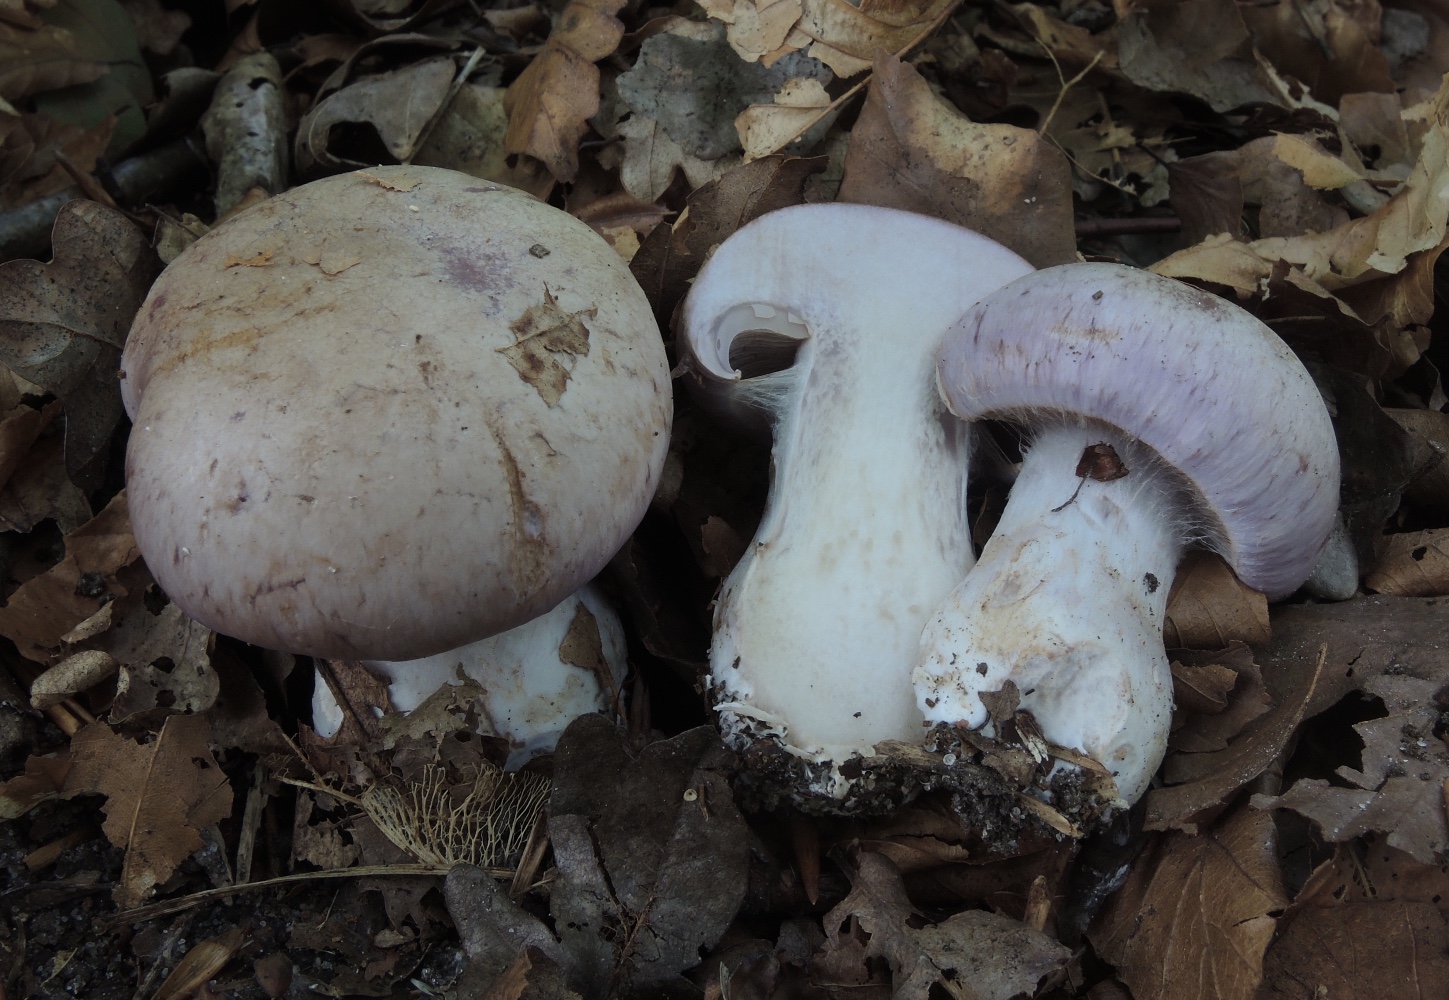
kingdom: Fungi
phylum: Basidiomycota
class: Agaricomycetes
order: Agaricales
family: Cortinariaceae
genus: Cortinarius
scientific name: Cortinarius largus
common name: violetrandet slørhat
